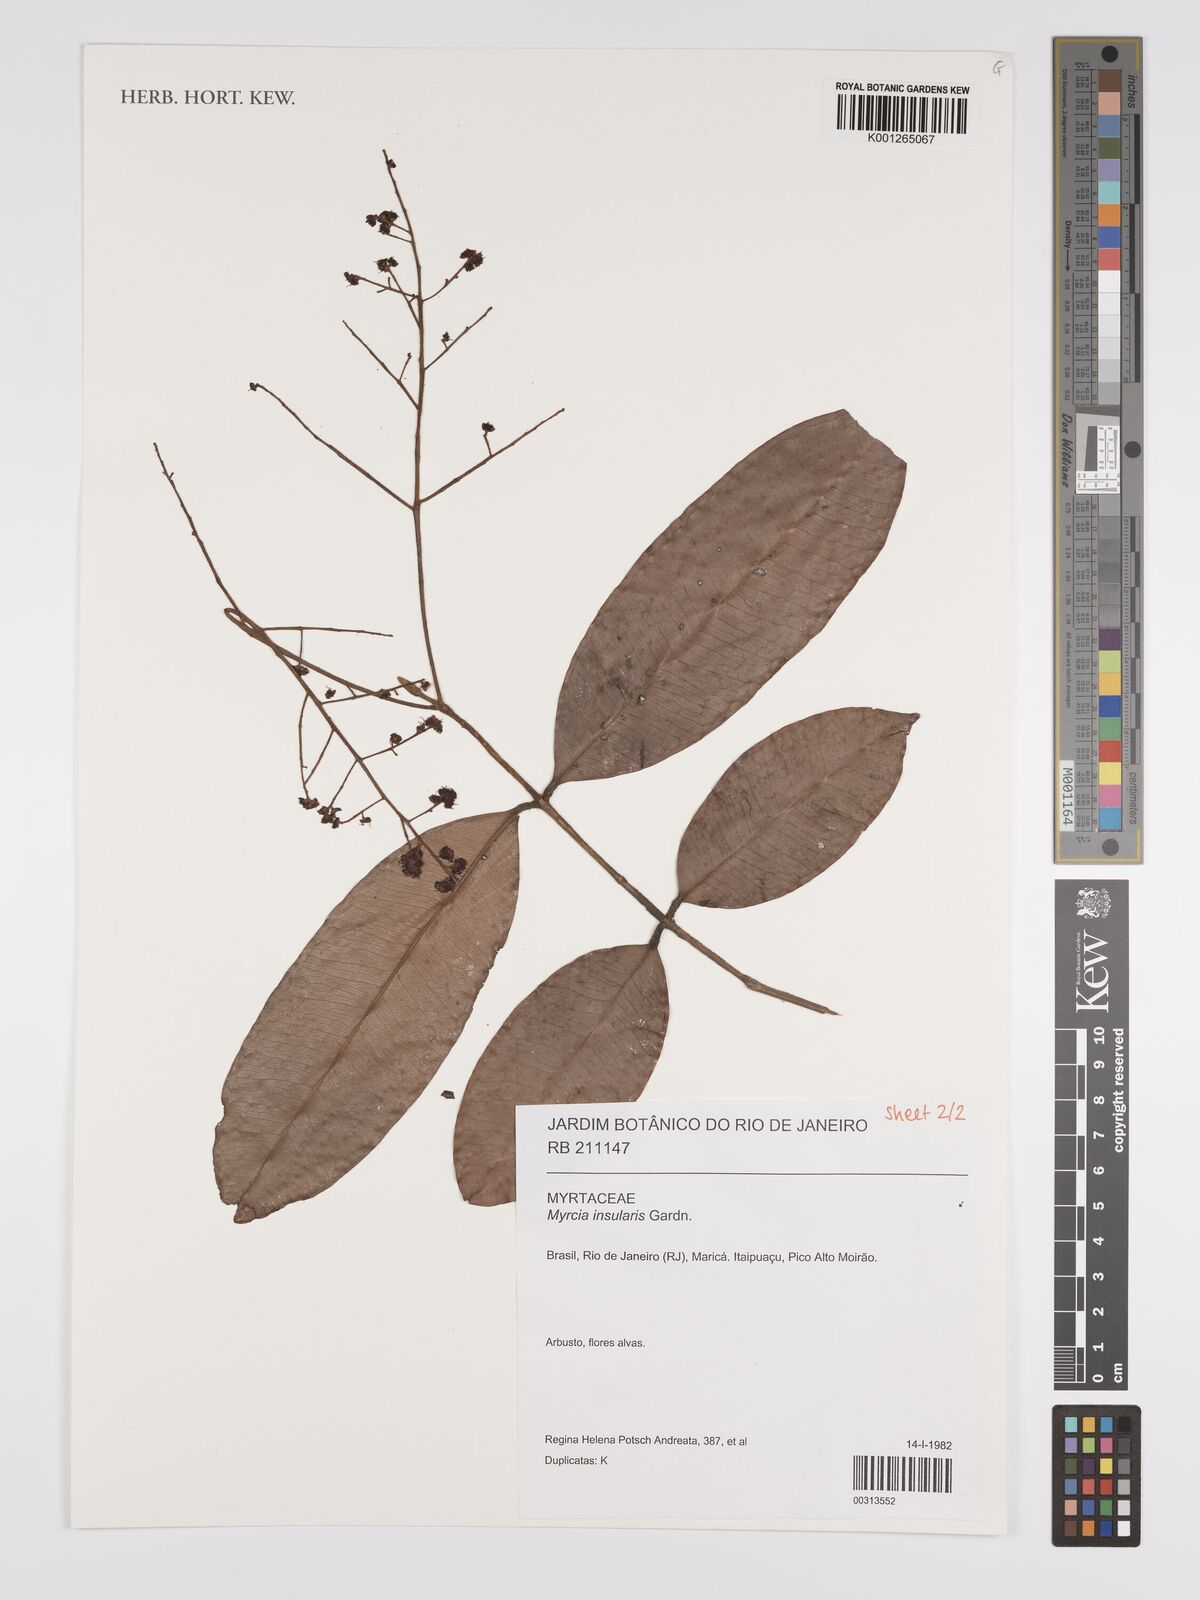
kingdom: Plantae
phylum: Tracheophyta
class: Magnoliopsida
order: Myrtales
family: Myrtaceae
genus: Myrcia
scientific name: Myrcia insularis
